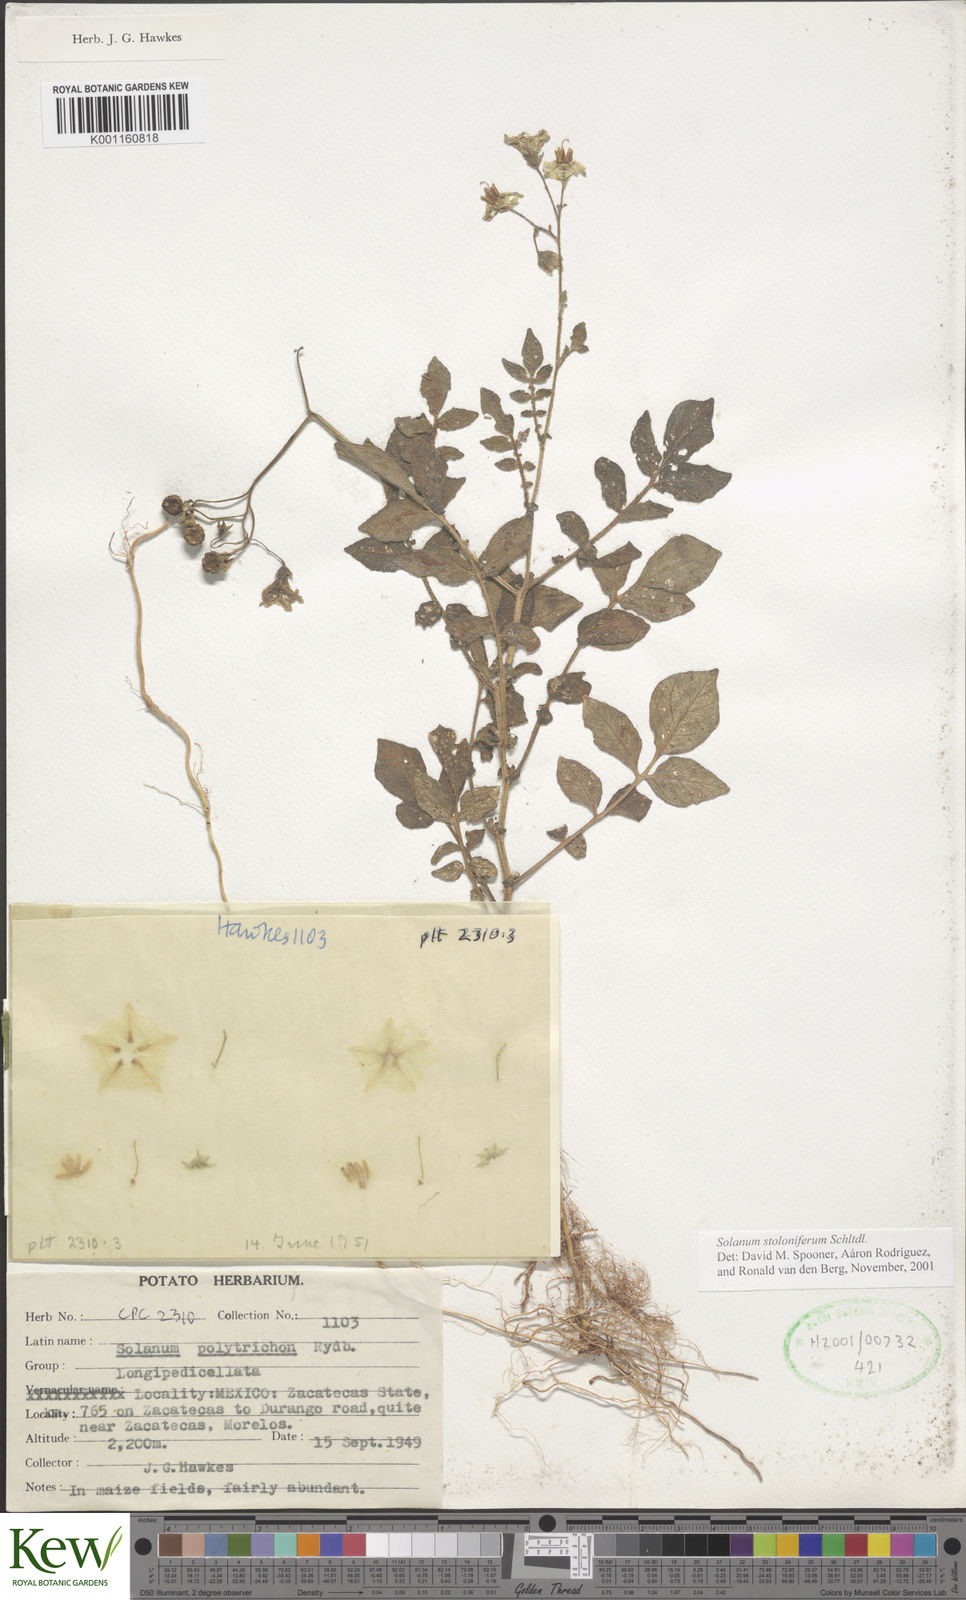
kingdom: Plantae
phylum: Tracheophyta
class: Magnoliopsida
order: Solanales
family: Solanaceae
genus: Solanum
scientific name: Solanum stoloniferum
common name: Fendler's nighshade
